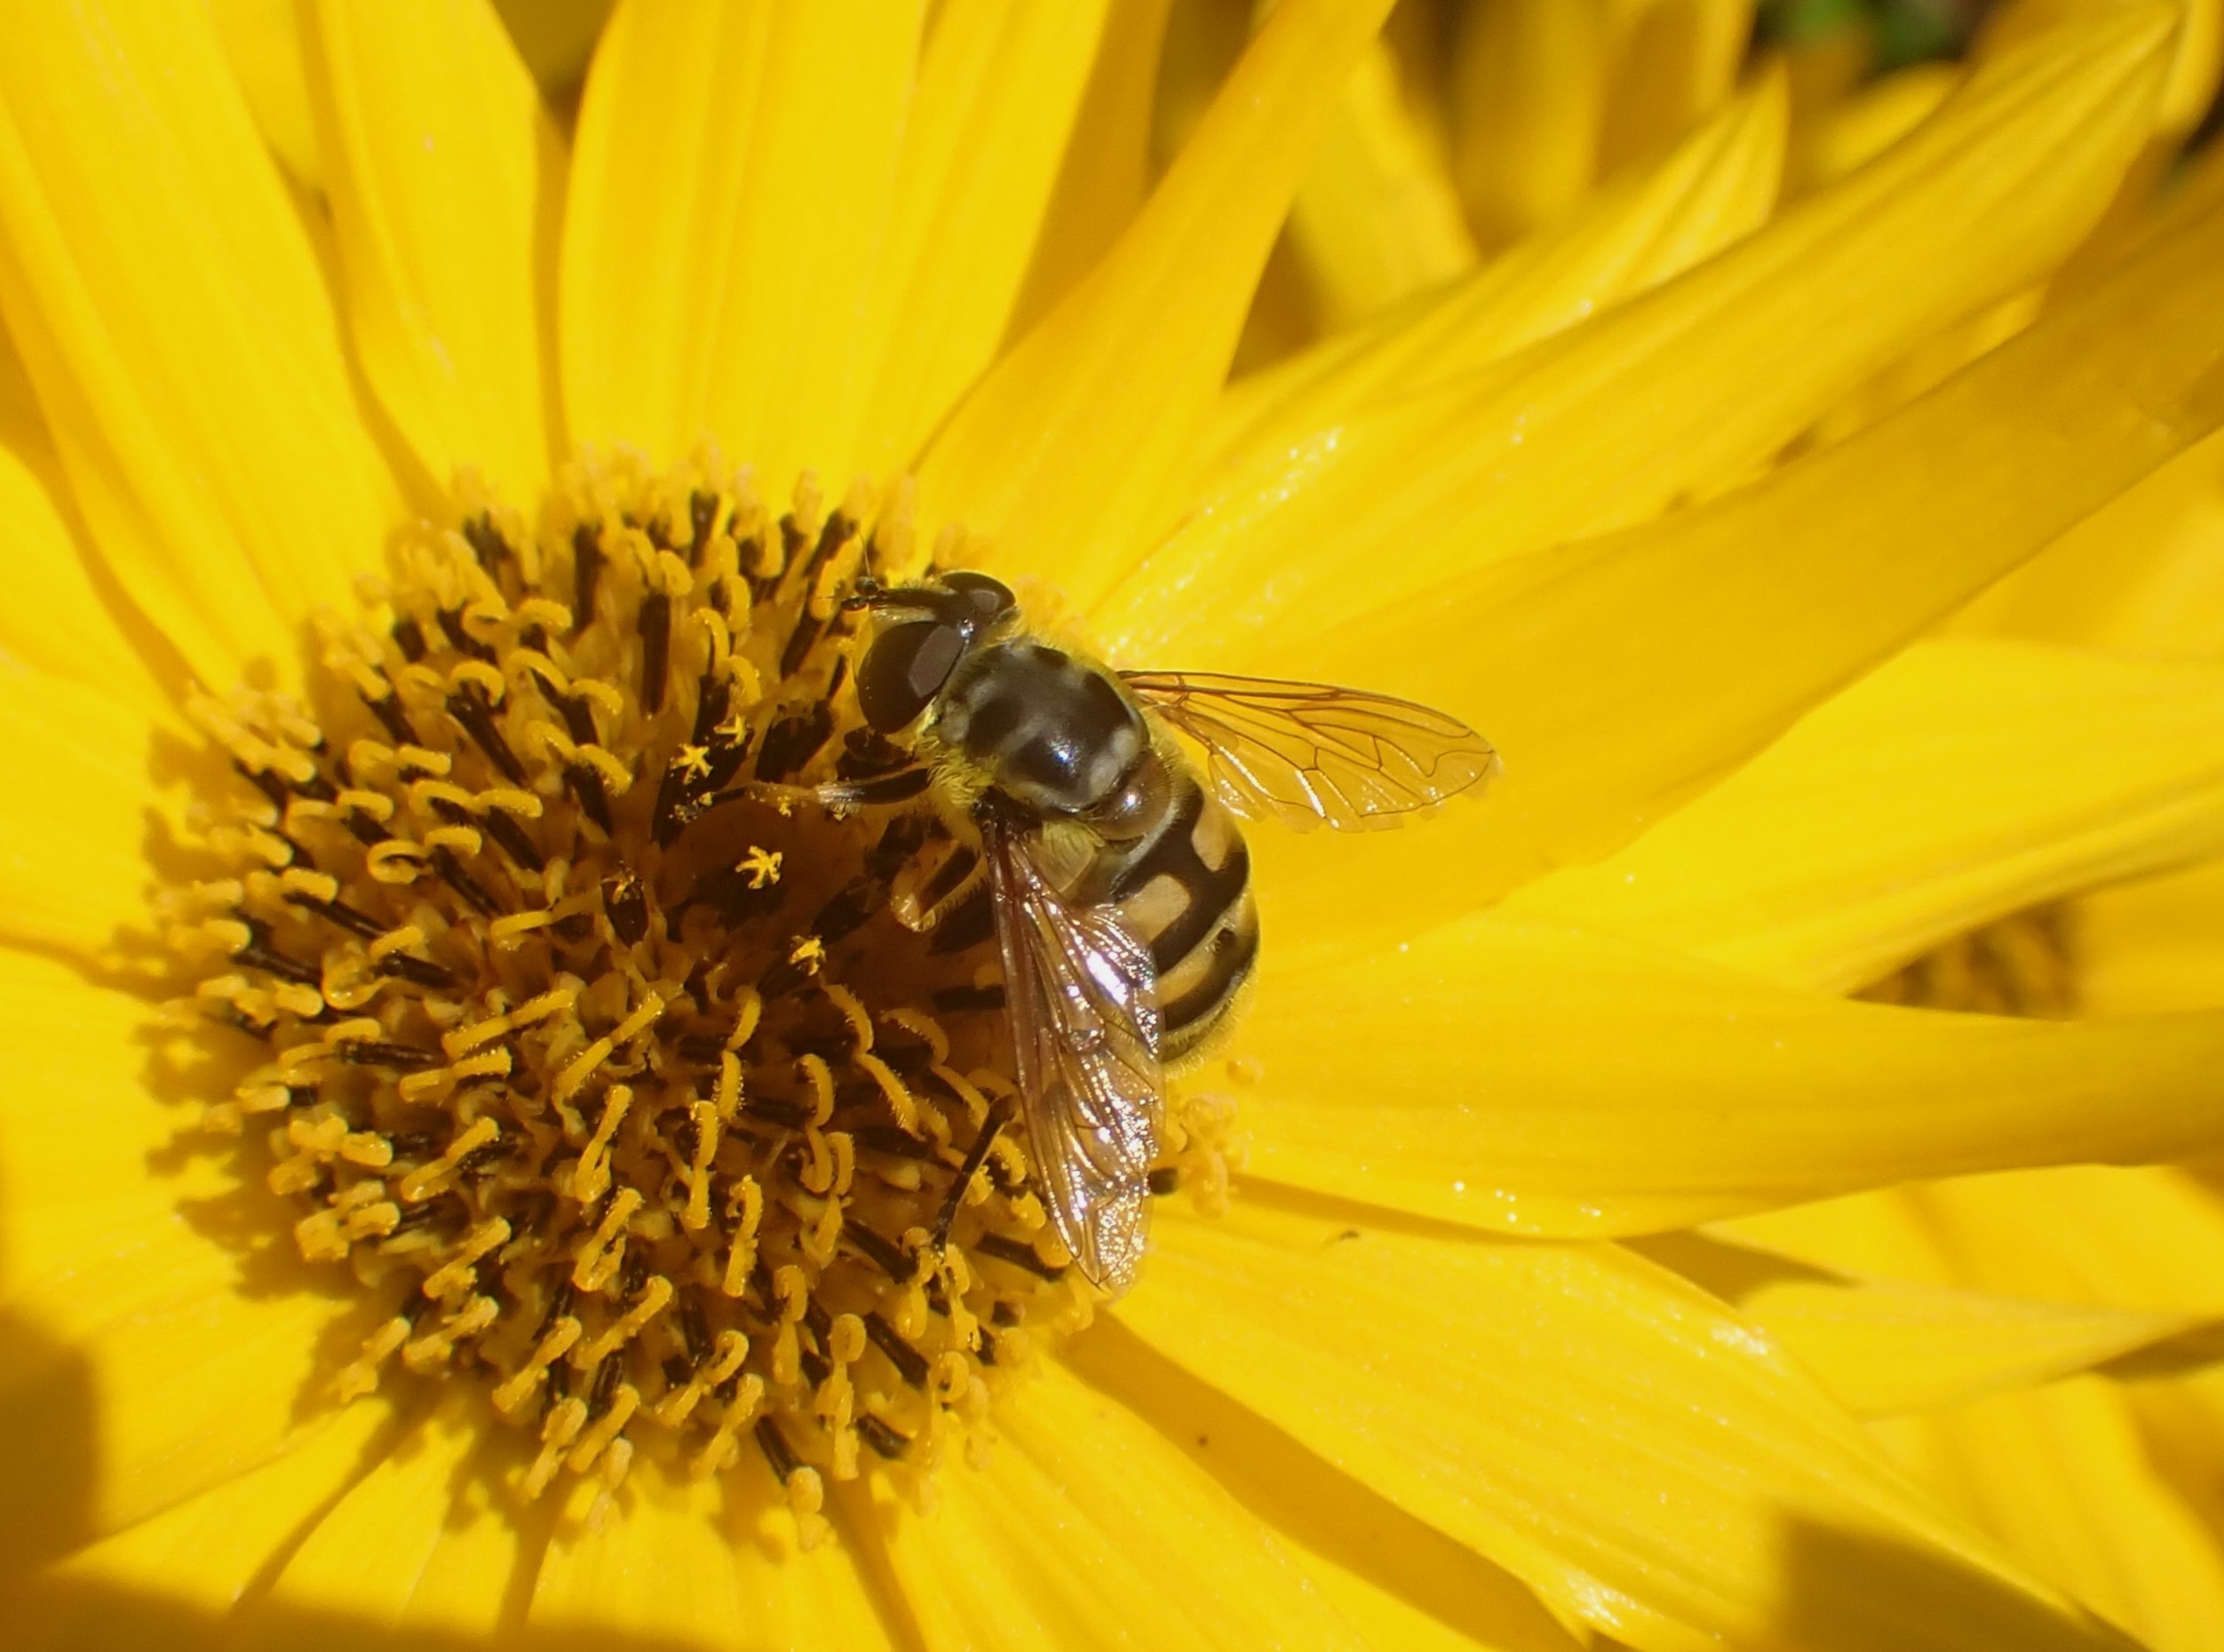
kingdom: Animalia
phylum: Arthropoda
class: Insecta
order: Diptera
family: Syrphidae
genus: Myathropa
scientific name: Myathropa florea
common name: Dødningehoved-svirreflue
